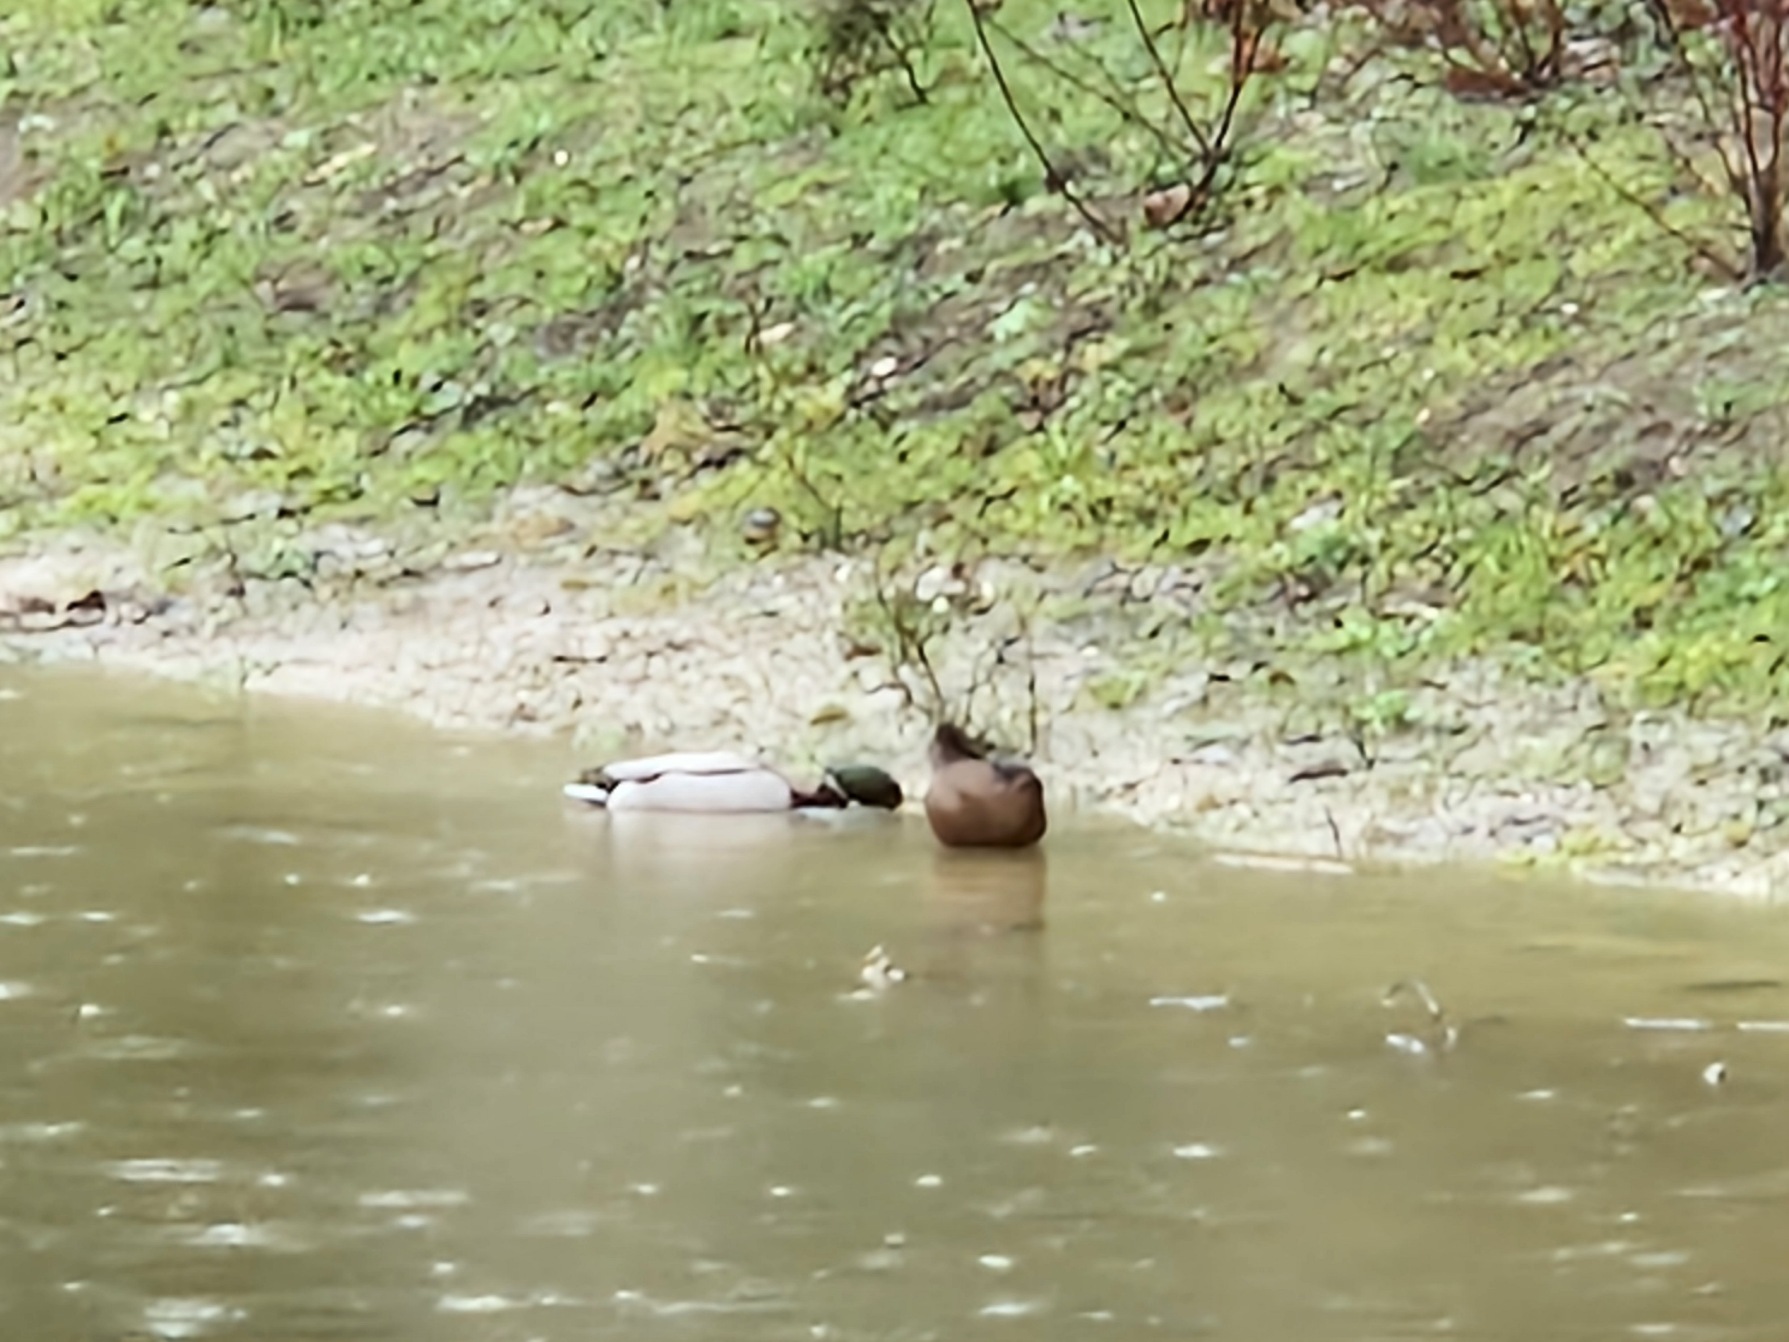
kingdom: Animalia
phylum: Chordata
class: Aves
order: Anseriformes
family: Anatidae
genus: Anas
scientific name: Anas platyrhynchos
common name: Gråand
